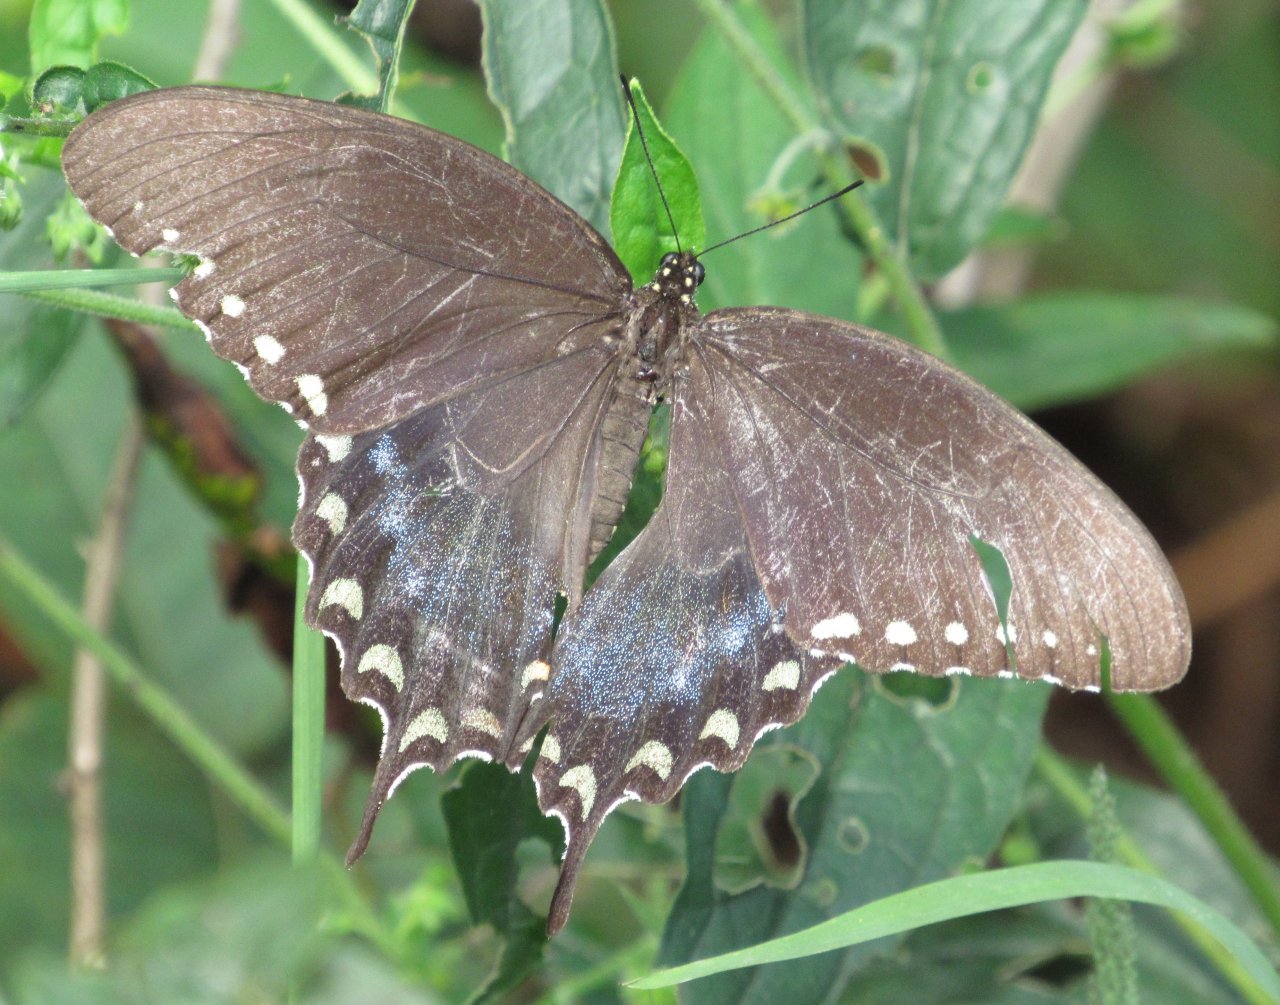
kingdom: Animalia
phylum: Arthropoda
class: Insecta
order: Lepidoptera
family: Papilionidae
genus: Pterourus
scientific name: Pterourus troilus
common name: Spicebush Swallowtail
